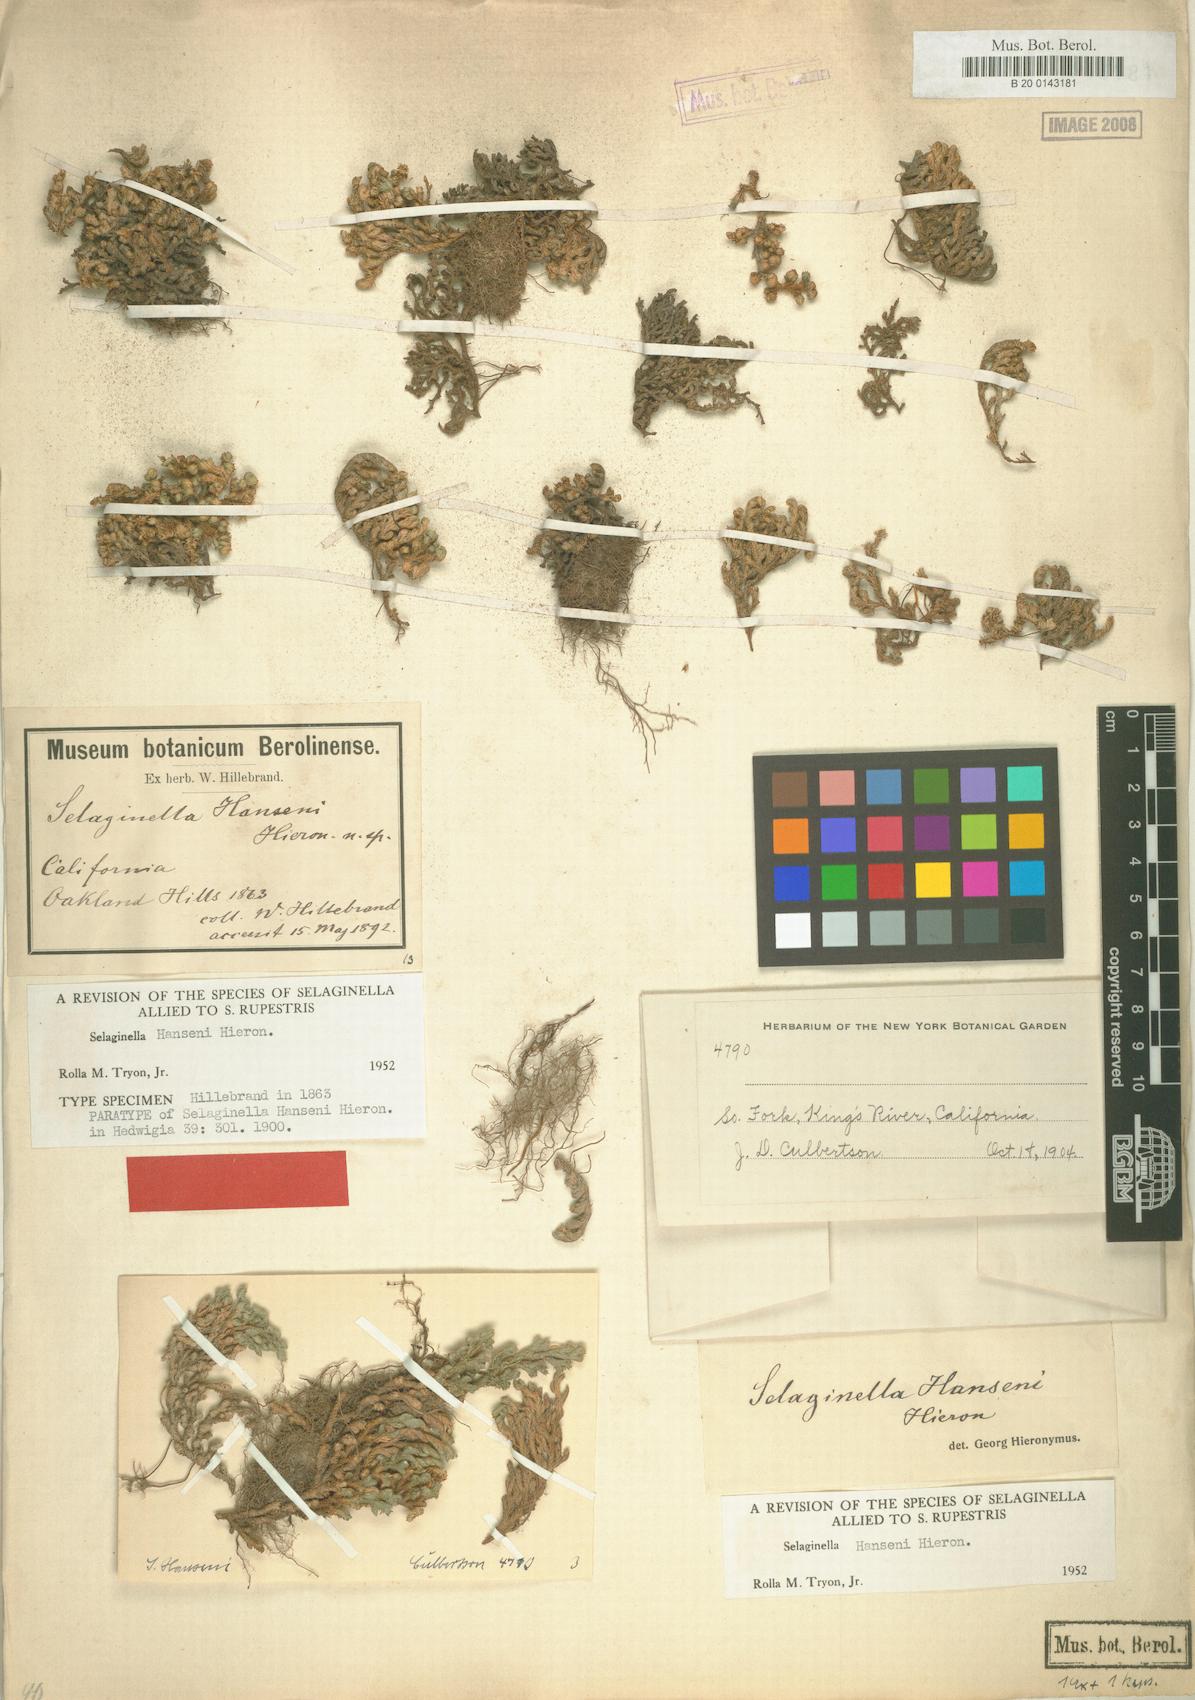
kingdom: Plantae
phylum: Tracheophyta
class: Lycopodiopsida
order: Selaginellales
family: Selaginellaceae
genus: Selaginella
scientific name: Selaginella hansenii
